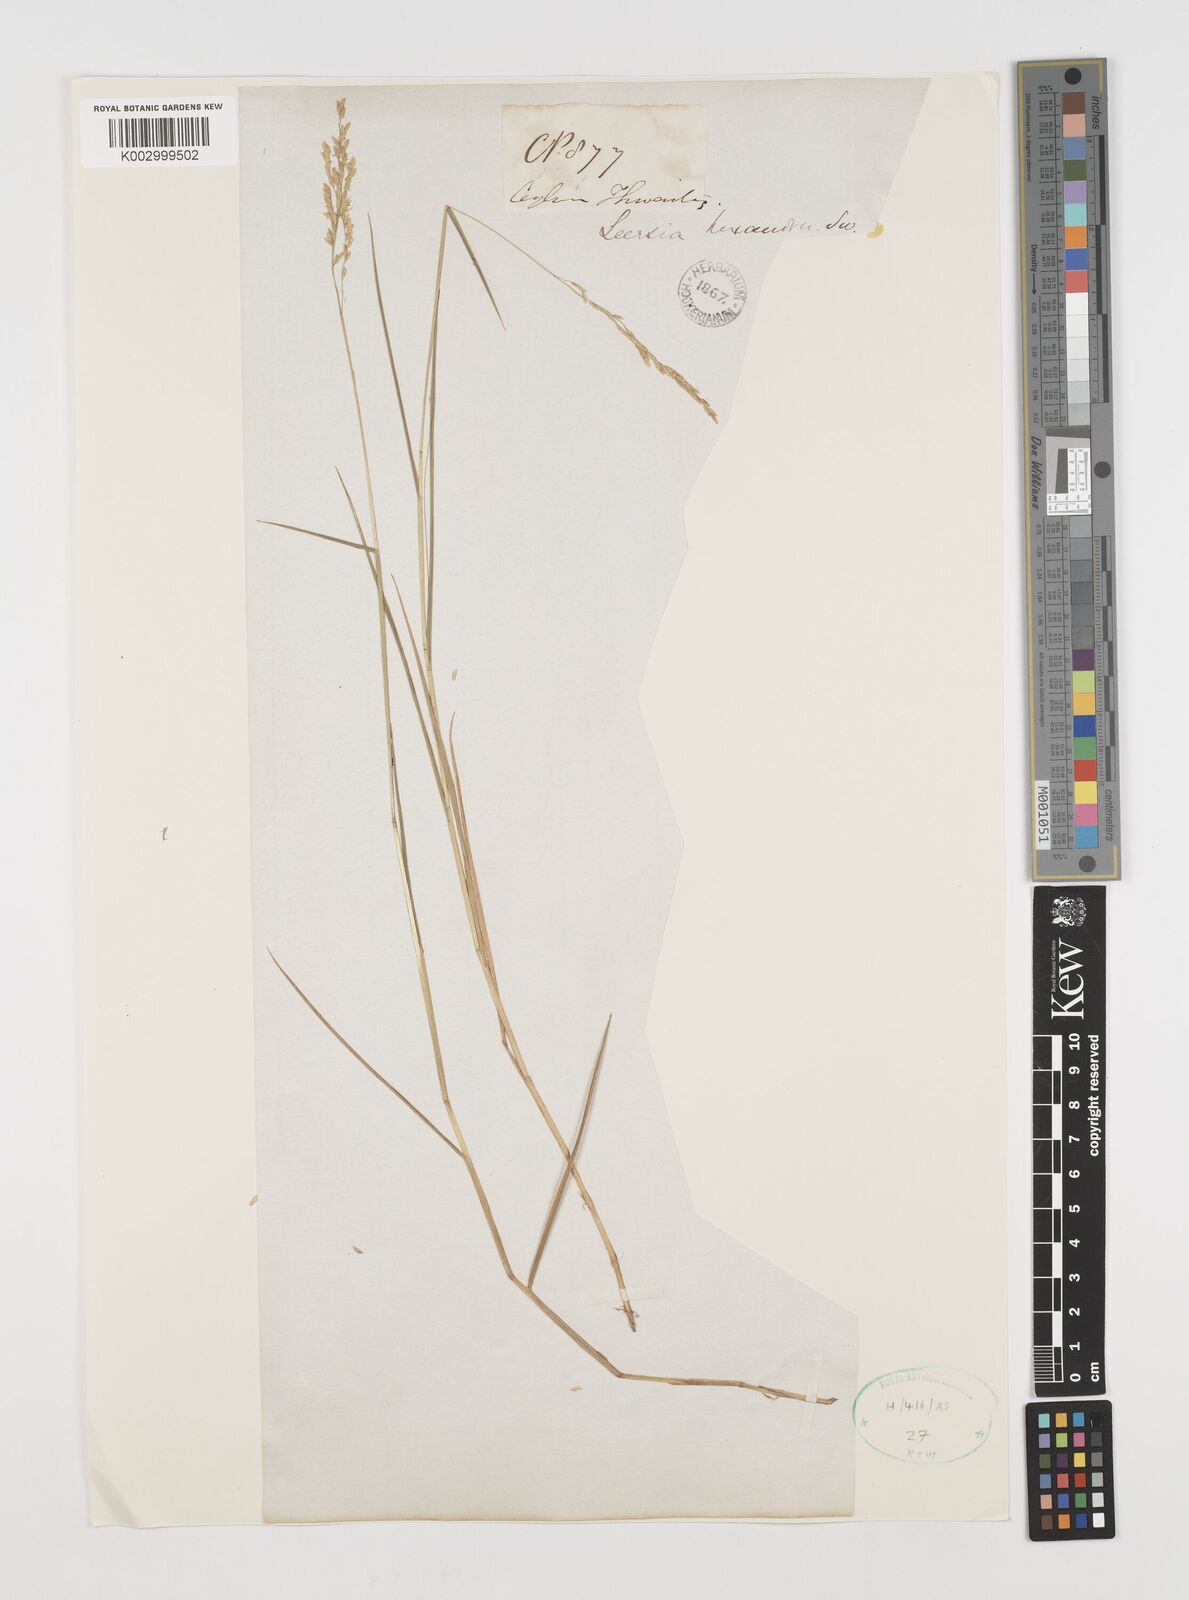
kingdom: Plantae
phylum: Tracheophyta
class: Liliopsida
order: Poales
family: Poaceae
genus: Leersia
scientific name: Leersia hexandra
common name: Southern cut grass
